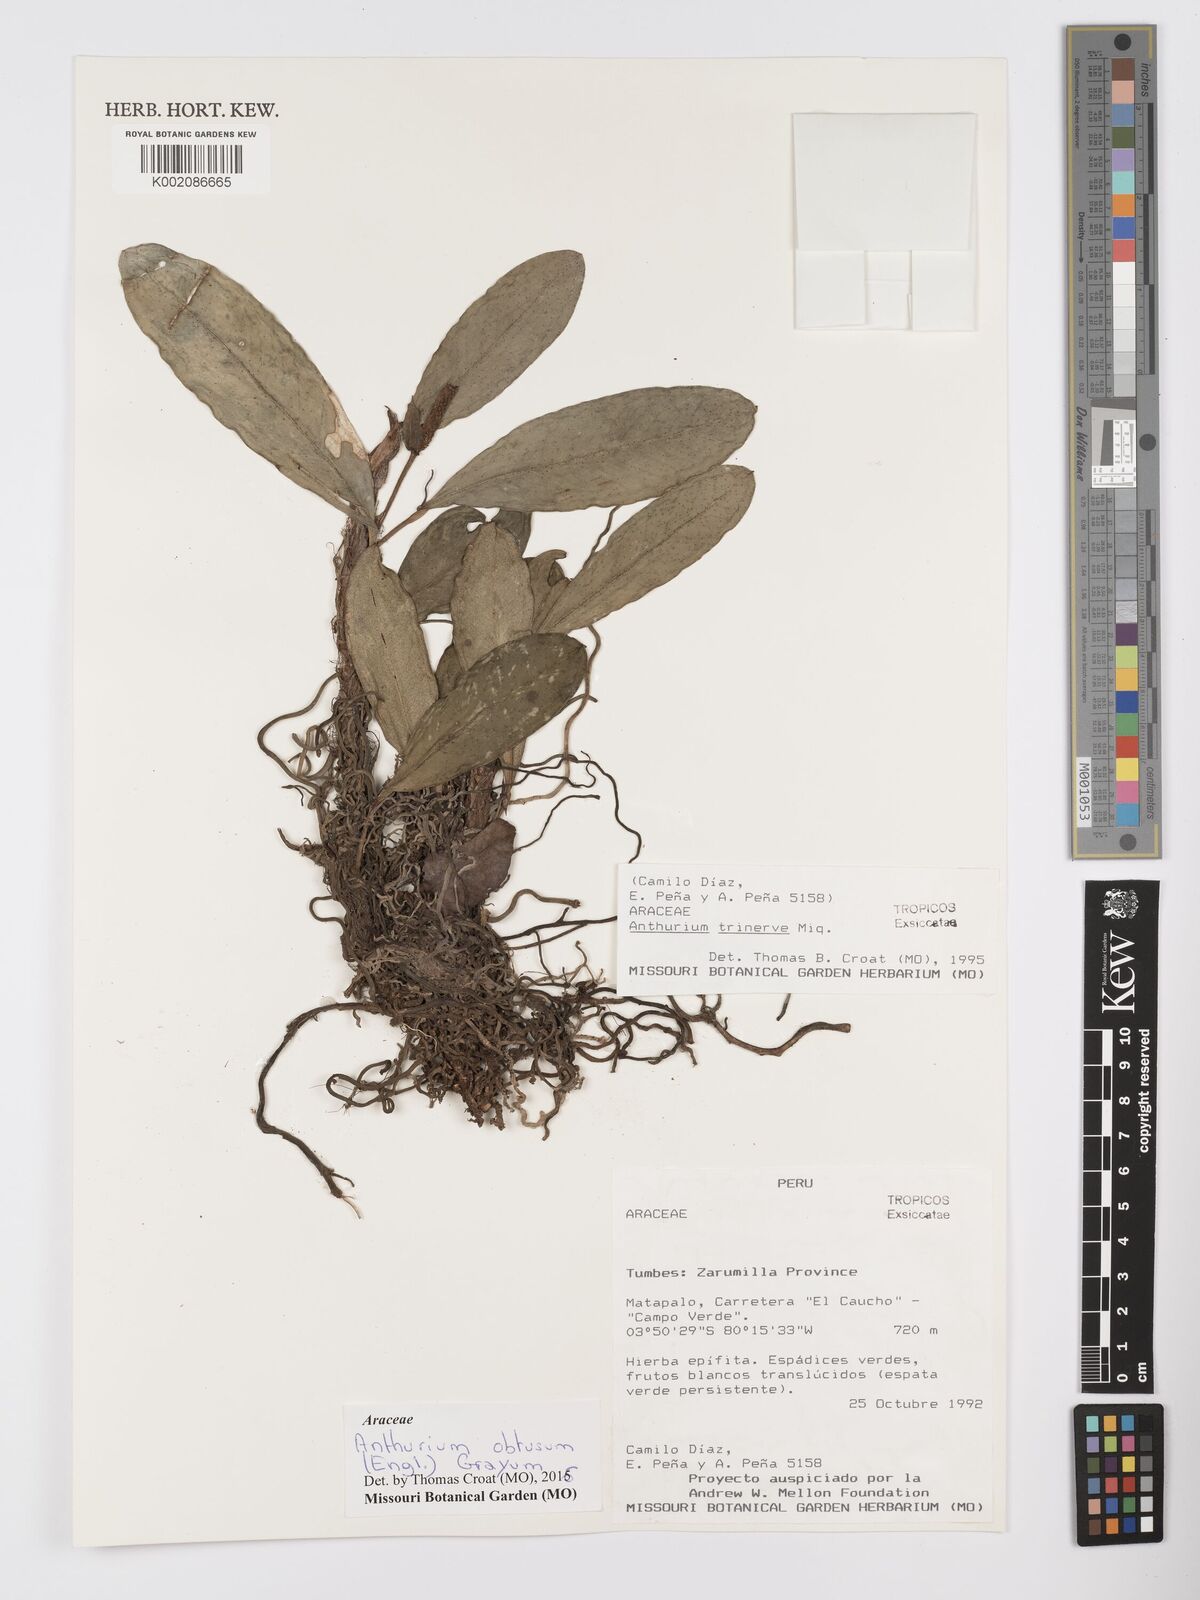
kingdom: Plantae
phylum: Tracheophyta
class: Liliopsida
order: Alismatales
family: Araceae
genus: Anthurium
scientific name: Anthurium obtusum
